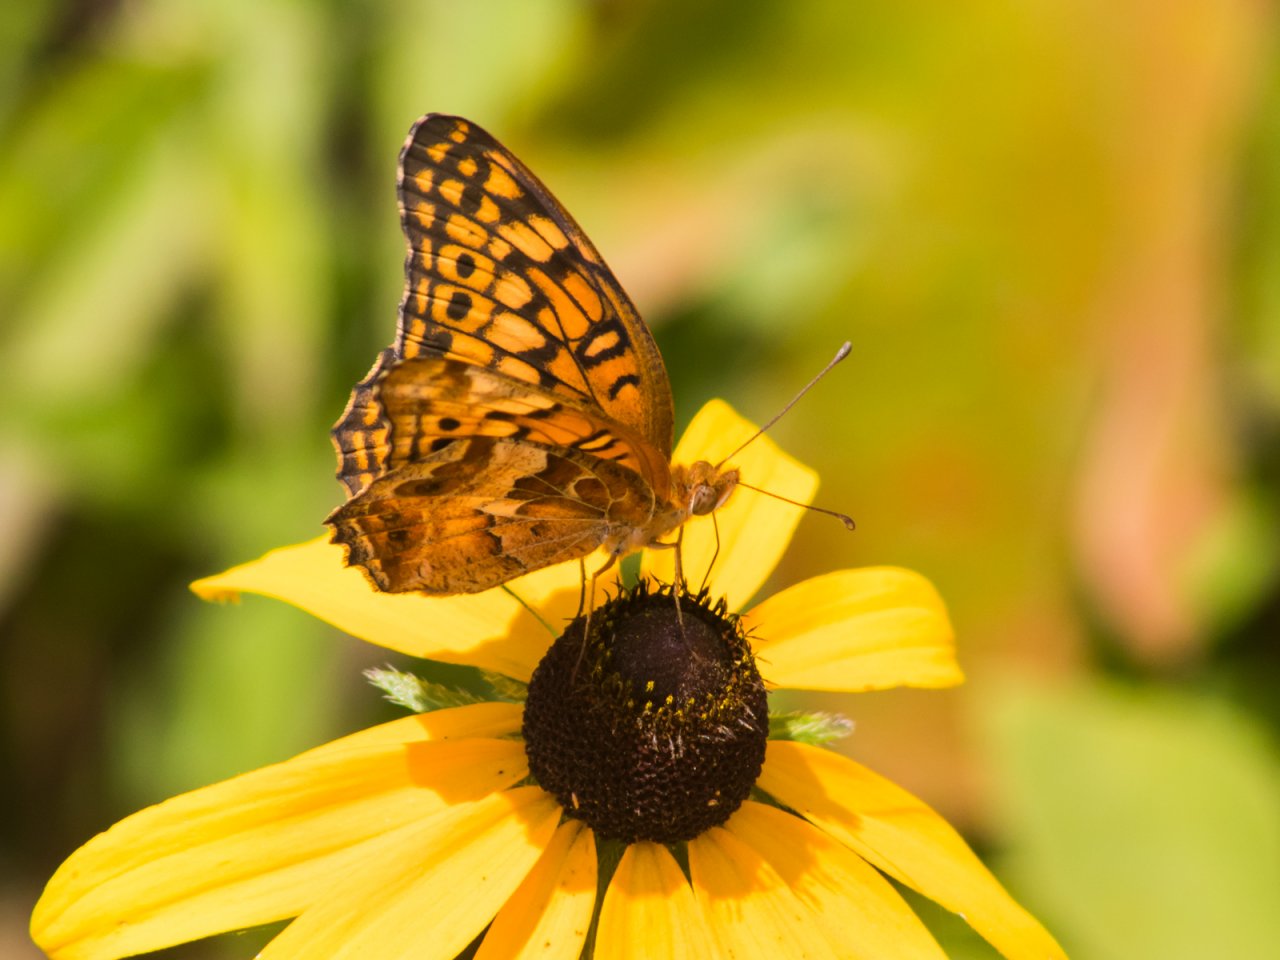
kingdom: Animalia
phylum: Arthropoda
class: Insecta
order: Lepidoptera
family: Nymphalidae
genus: Euptoieta
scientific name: Euptoieta claudia
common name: Variegated Fritillary
